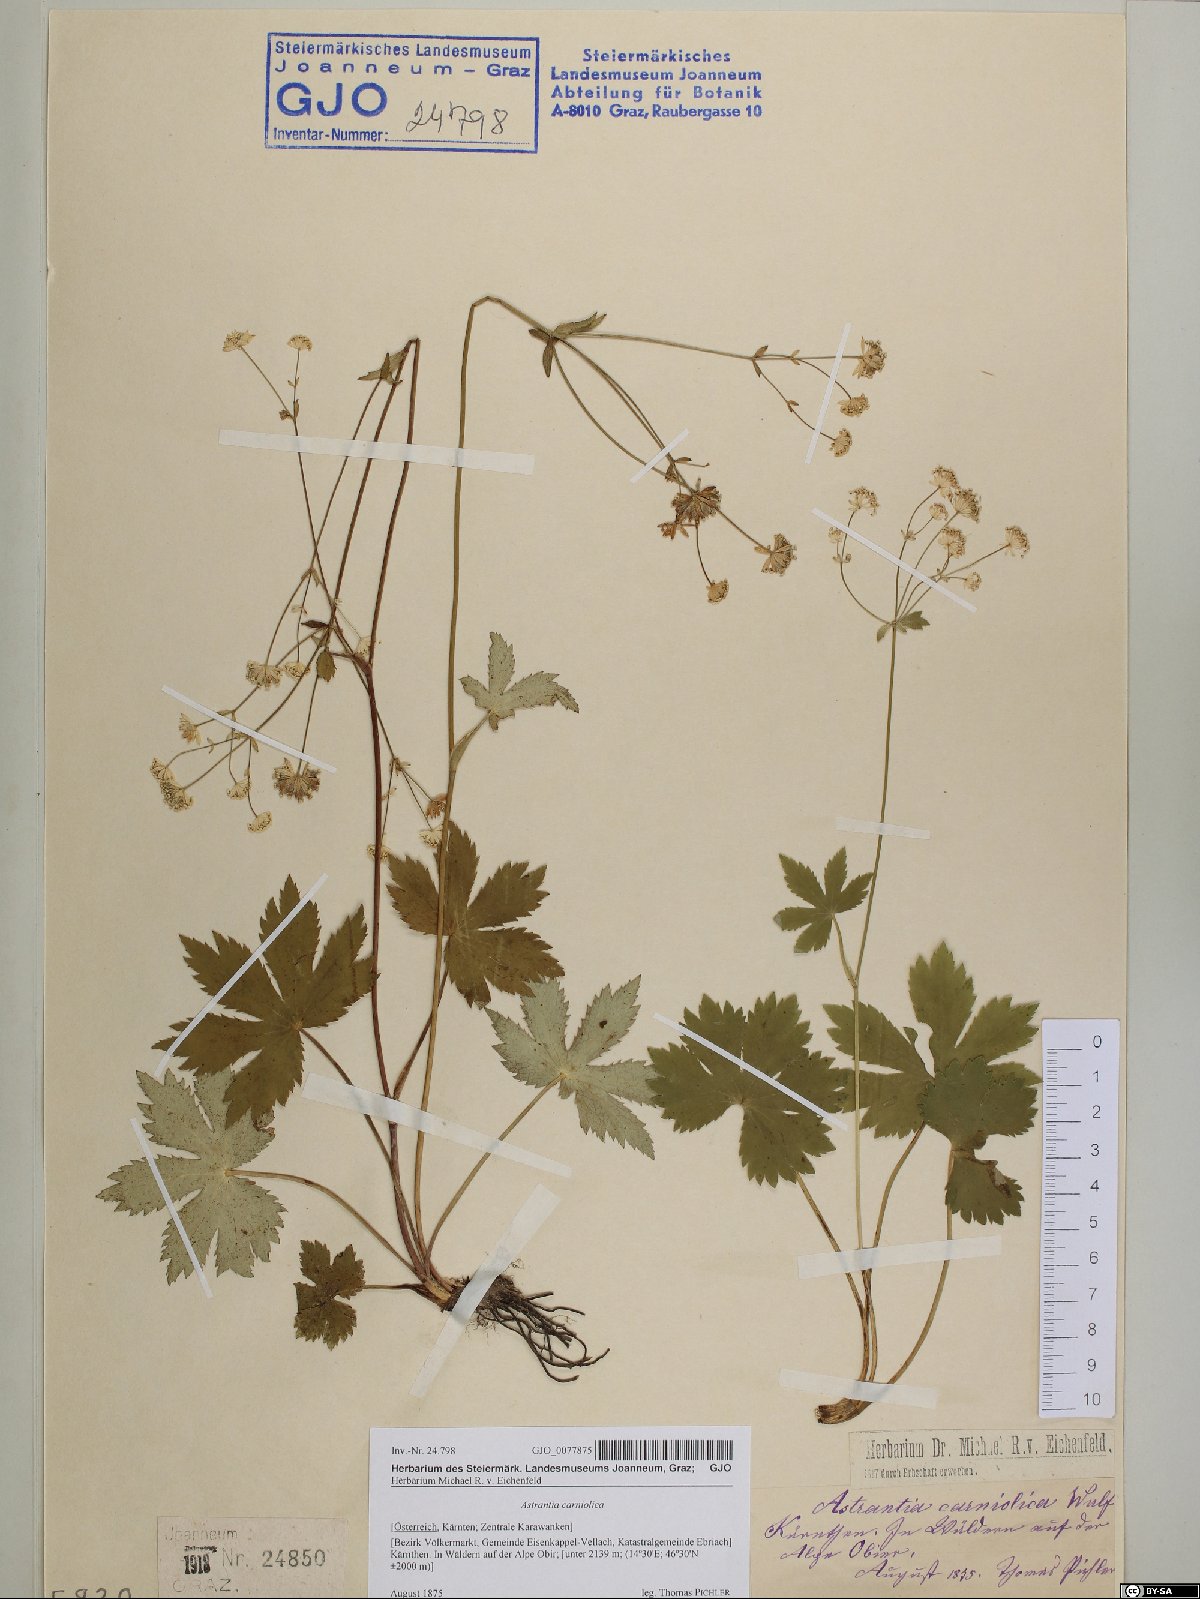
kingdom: Plantae
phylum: Tracheophyta
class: Magnoliopsida
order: Apiales
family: Apiaceae
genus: Astrantia
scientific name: Astrantia carniolica
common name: Carnic masterwort
